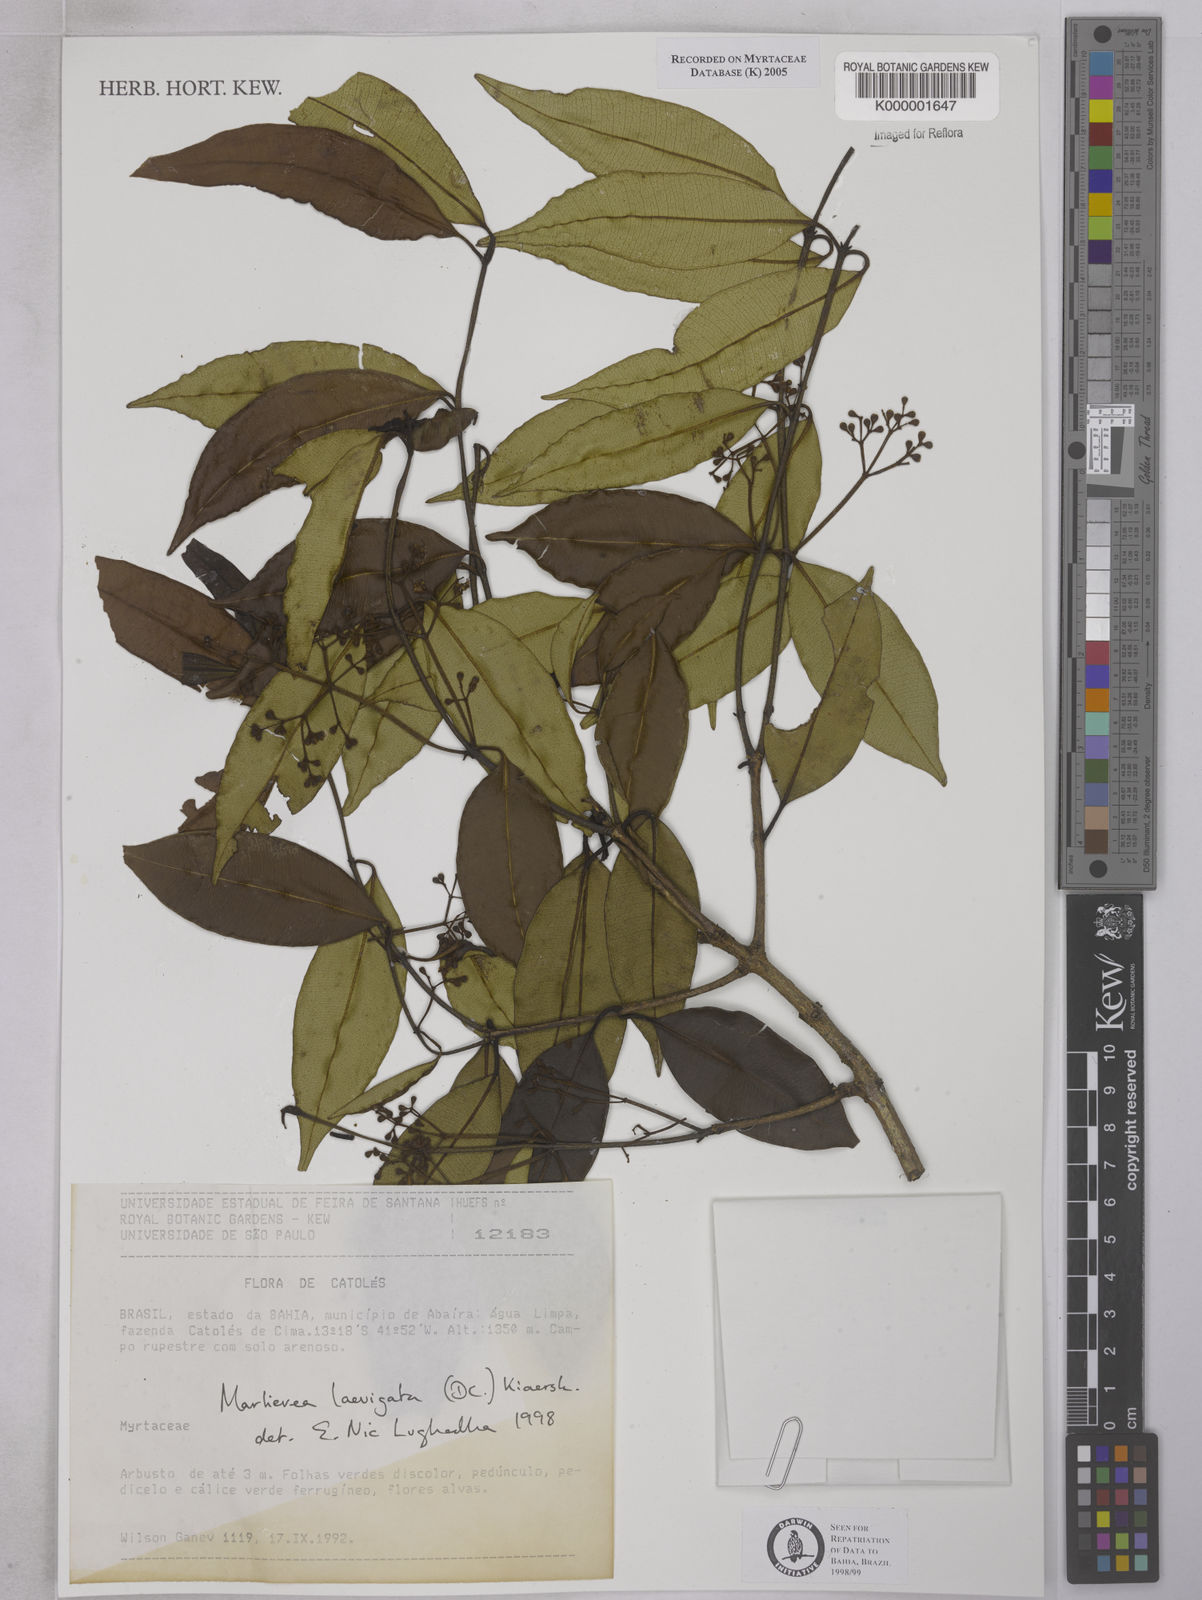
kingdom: Plantae
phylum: Tracheophyta
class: Magnoliopsida
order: Myrtales
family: Myrtaceae
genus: Myrcia
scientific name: Myrcia multipunctata
